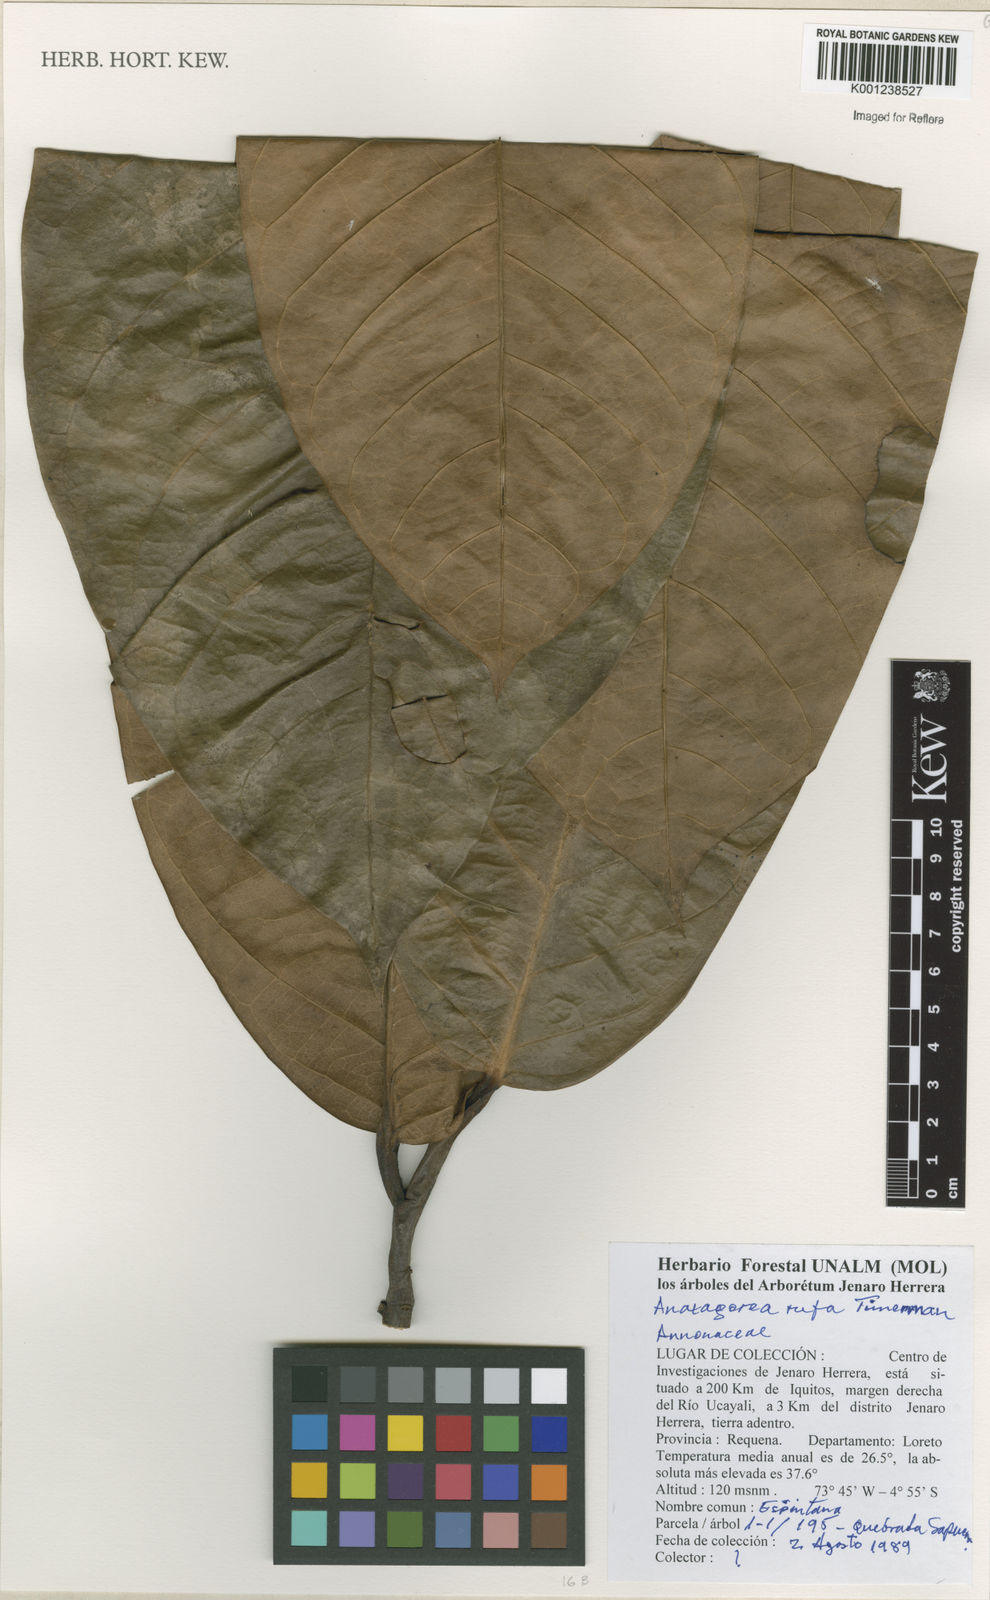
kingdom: Plantae
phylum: Tracheophyta
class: Magnoliopsida
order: Magnoliales
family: Annonaceae
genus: Anaxagorea
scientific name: Anaxagorea rufa
